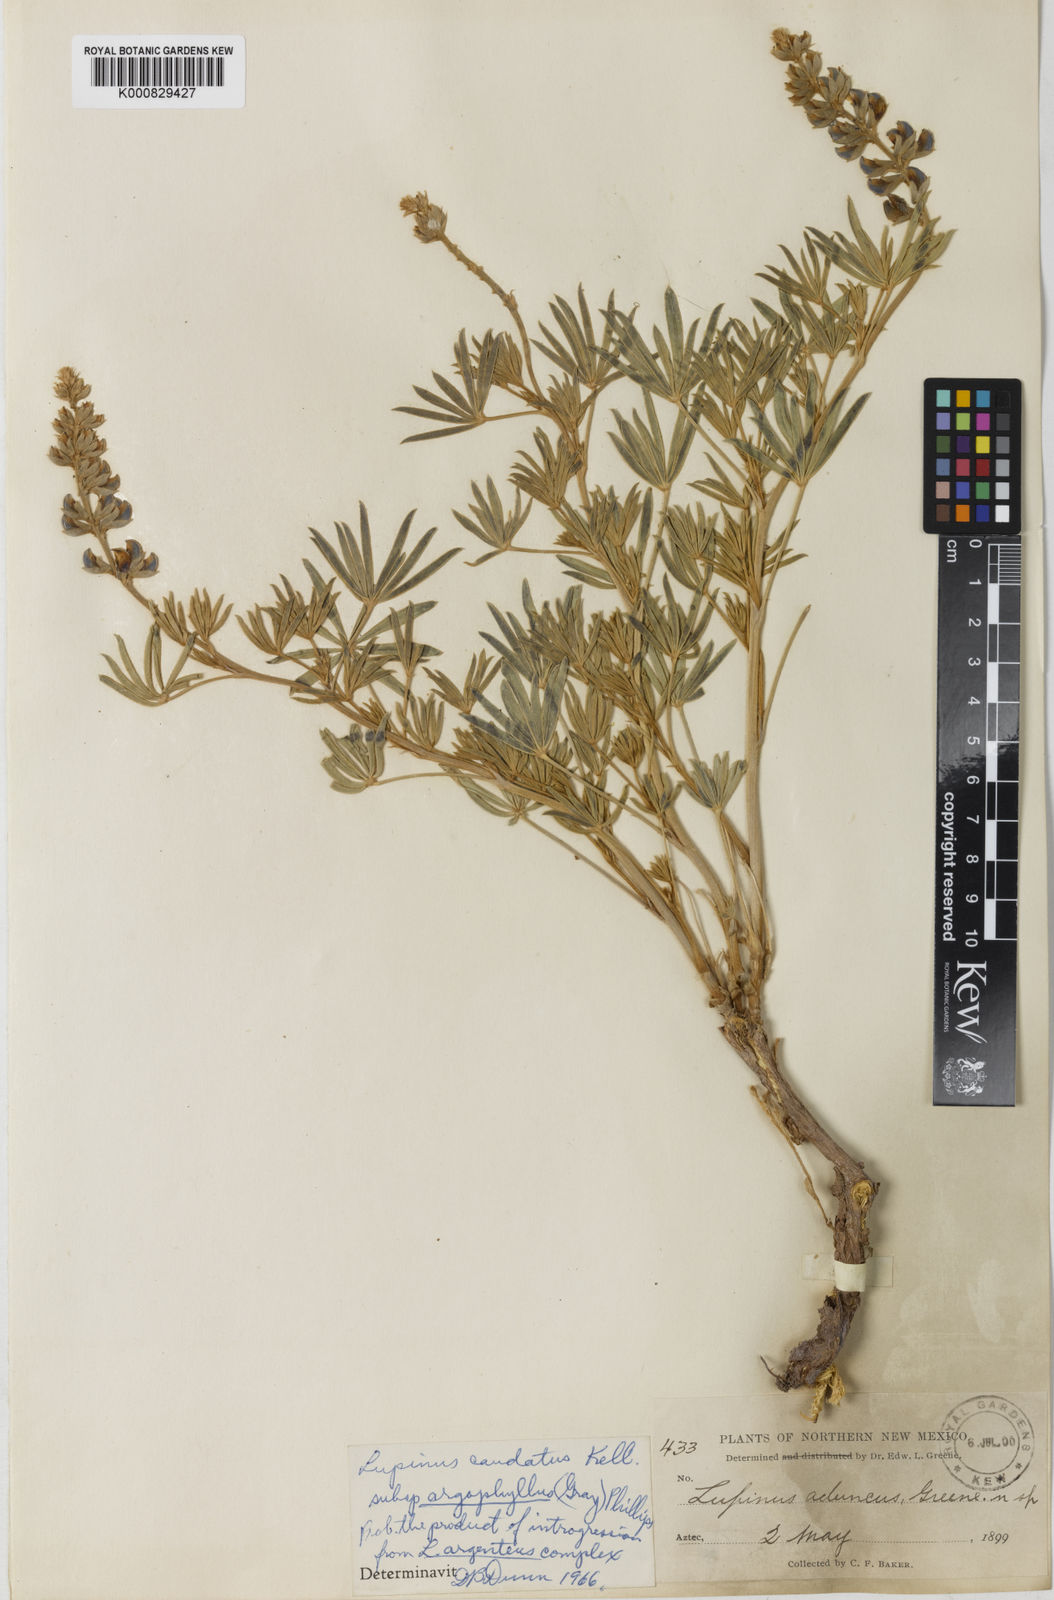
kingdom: Plantae
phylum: Tracheophyta
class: Magnoliopsida
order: Fabales
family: Fabaceae
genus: Lupinus
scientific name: Lupinus caudatus
